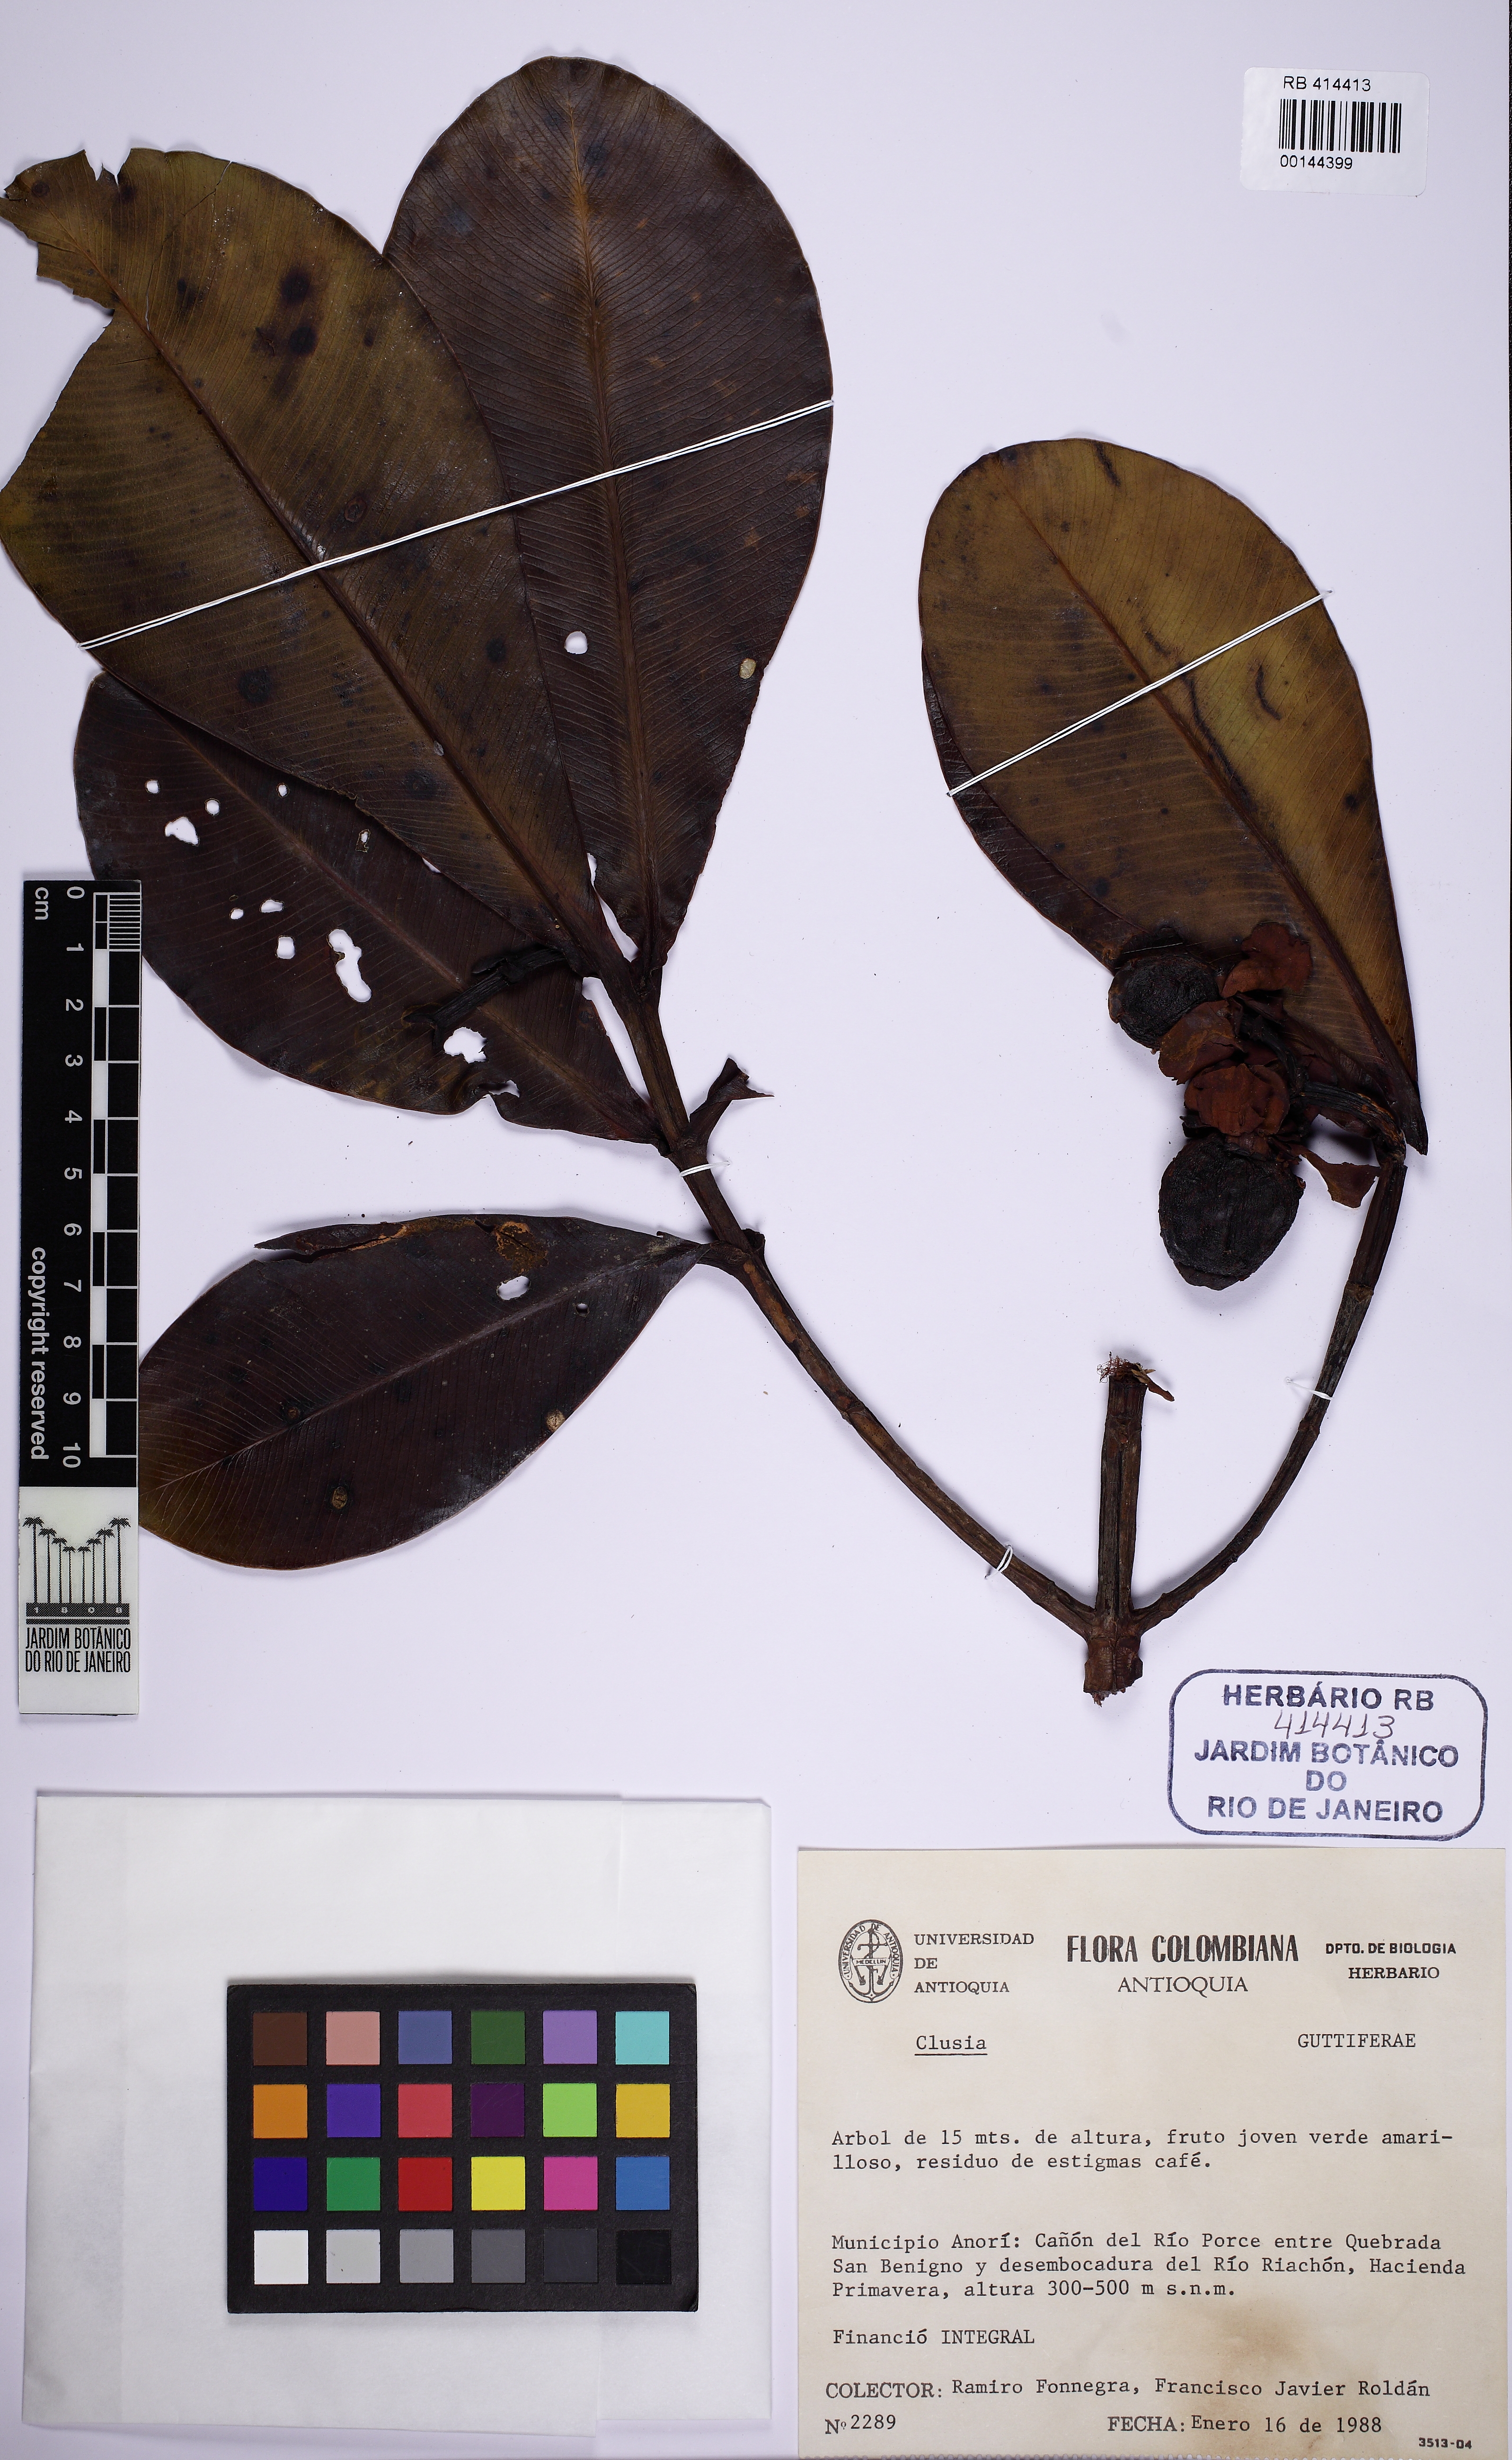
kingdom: Plantae
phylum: Tracheophyta
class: Magnoliopsida
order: Malpighiales
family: Clusiaceae
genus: Clusia
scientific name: Clusia
